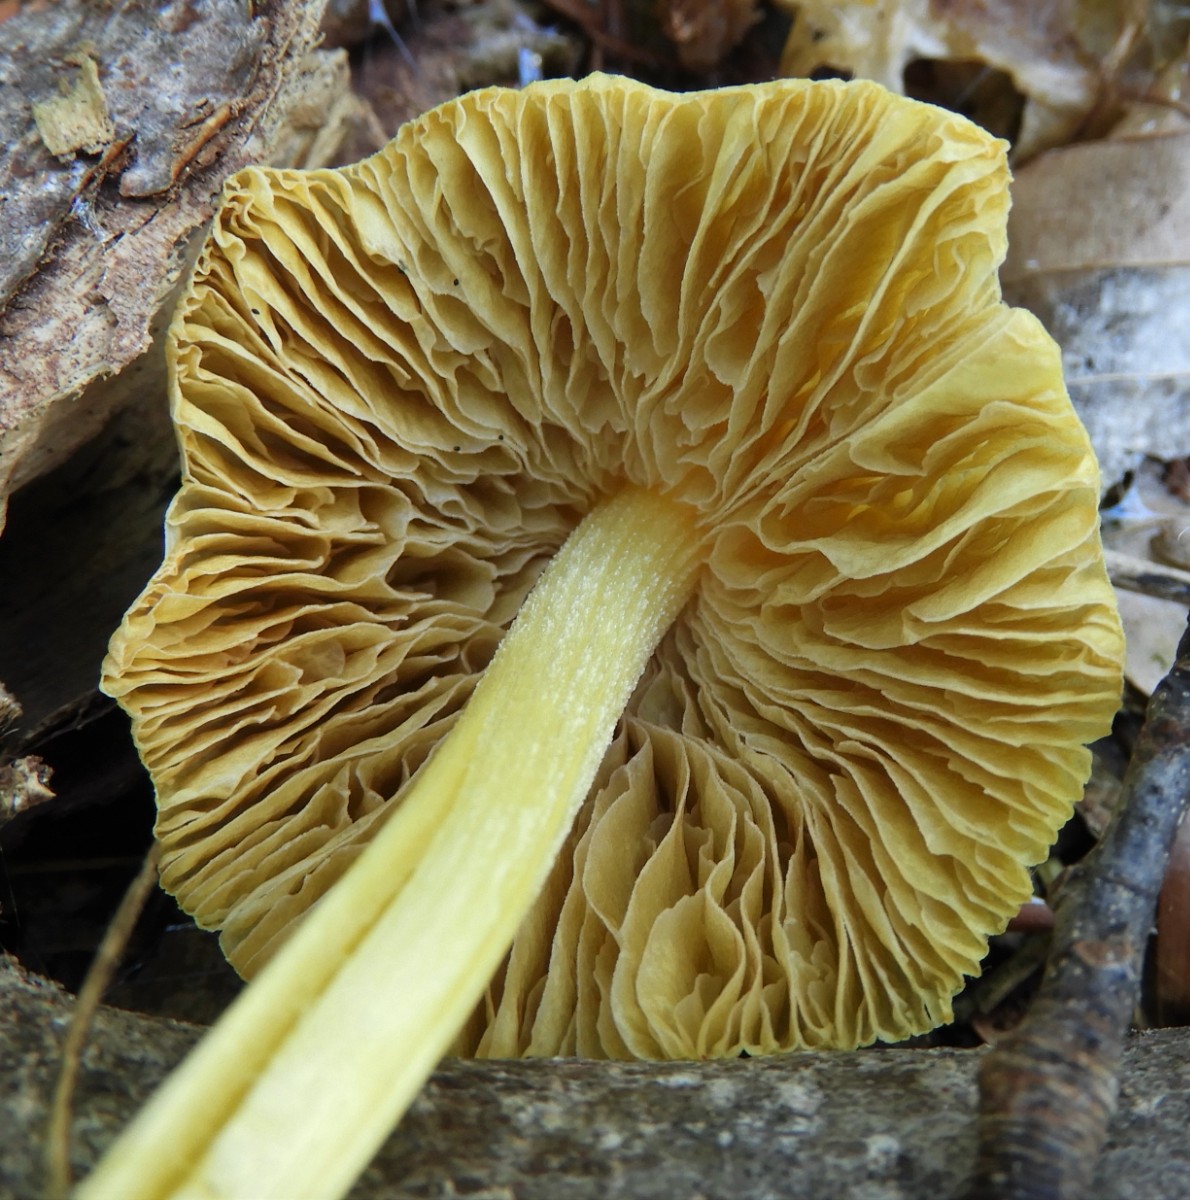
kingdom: Fungi
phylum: Basidiomycota
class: Agaricomycetes
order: Agaricales
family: Bolbitiaceae
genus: Bolbitius
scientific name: Bolbitius titubans
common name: almindelig gulhat
